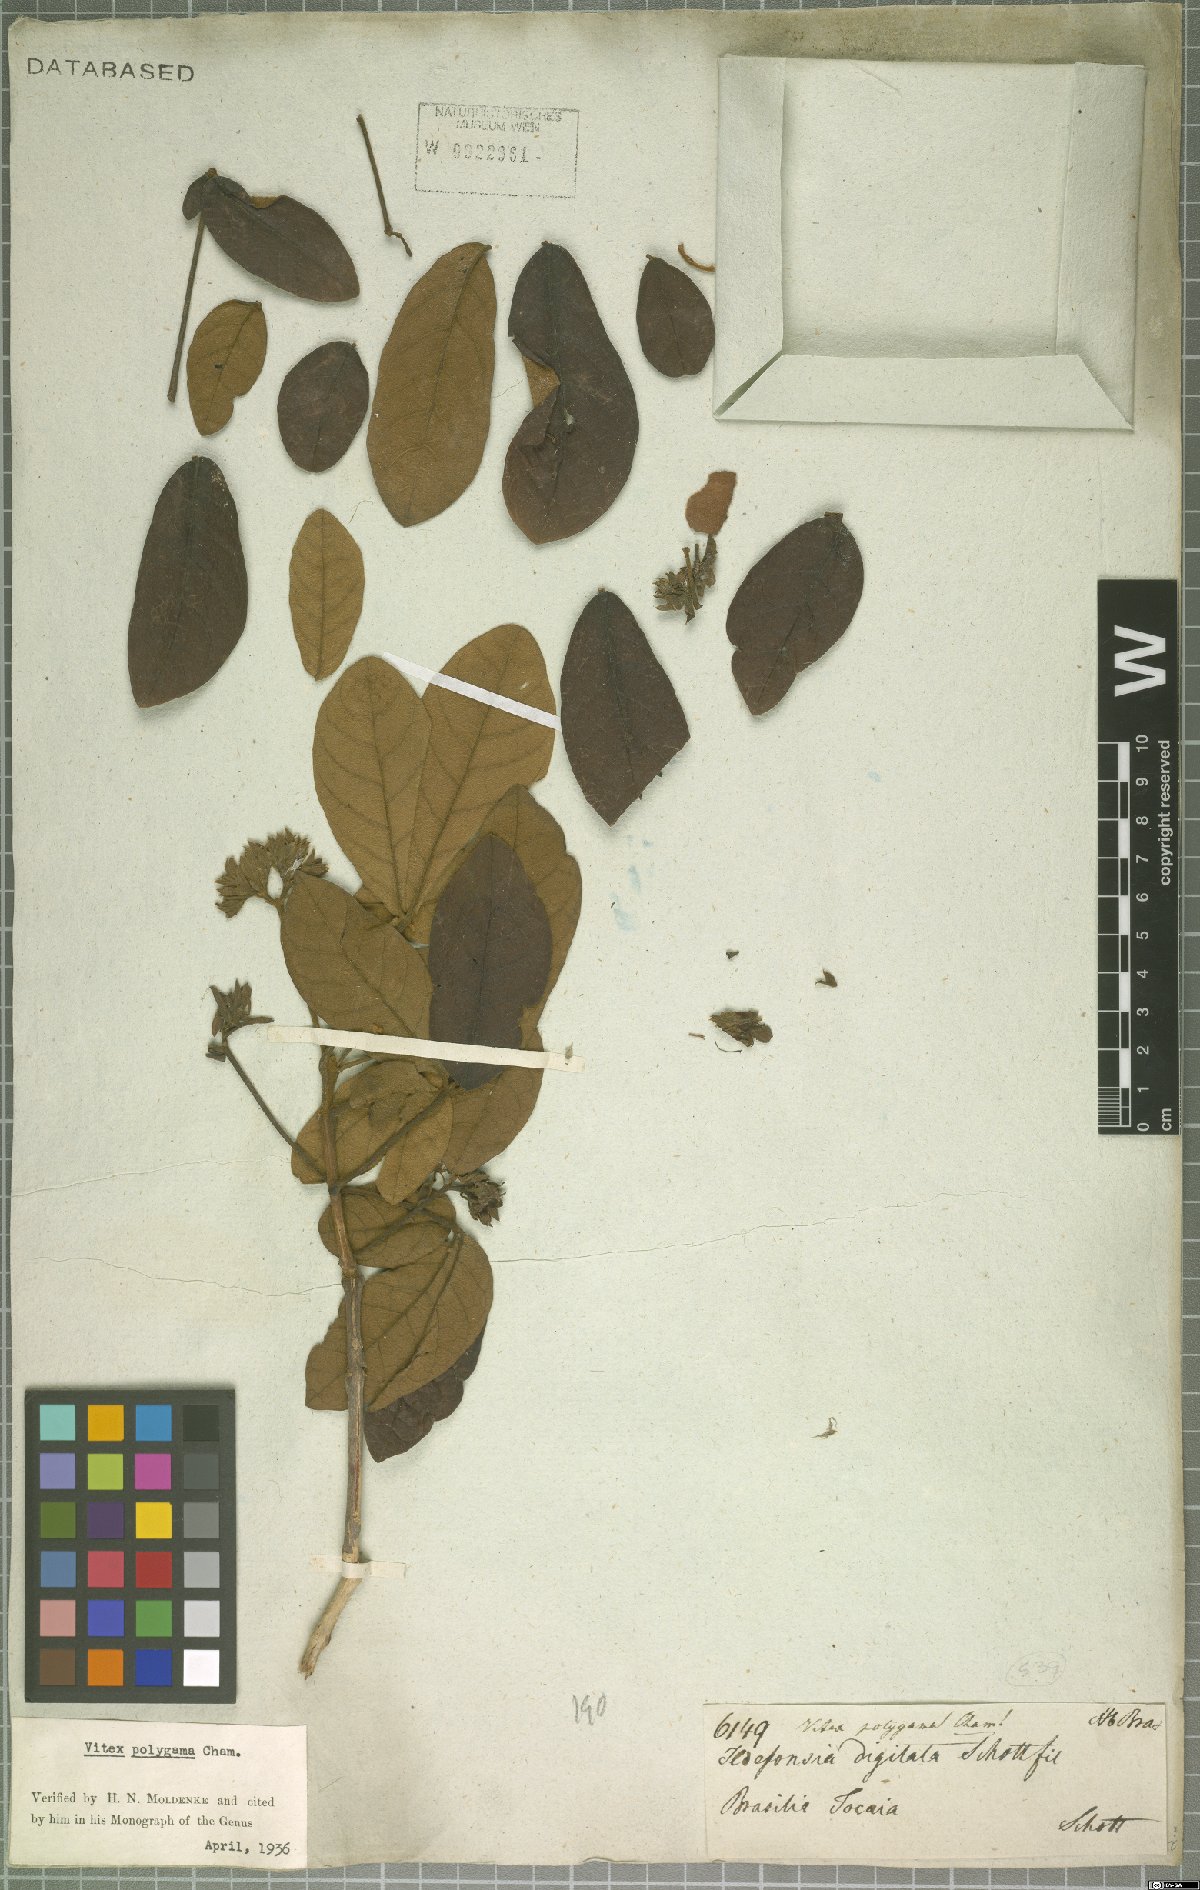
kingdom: Plantae
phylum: Tracheophyta
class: Magnoliopsida
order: Lamiales
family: Lamiaceae
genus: Vitex
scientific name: Vitex polygama
